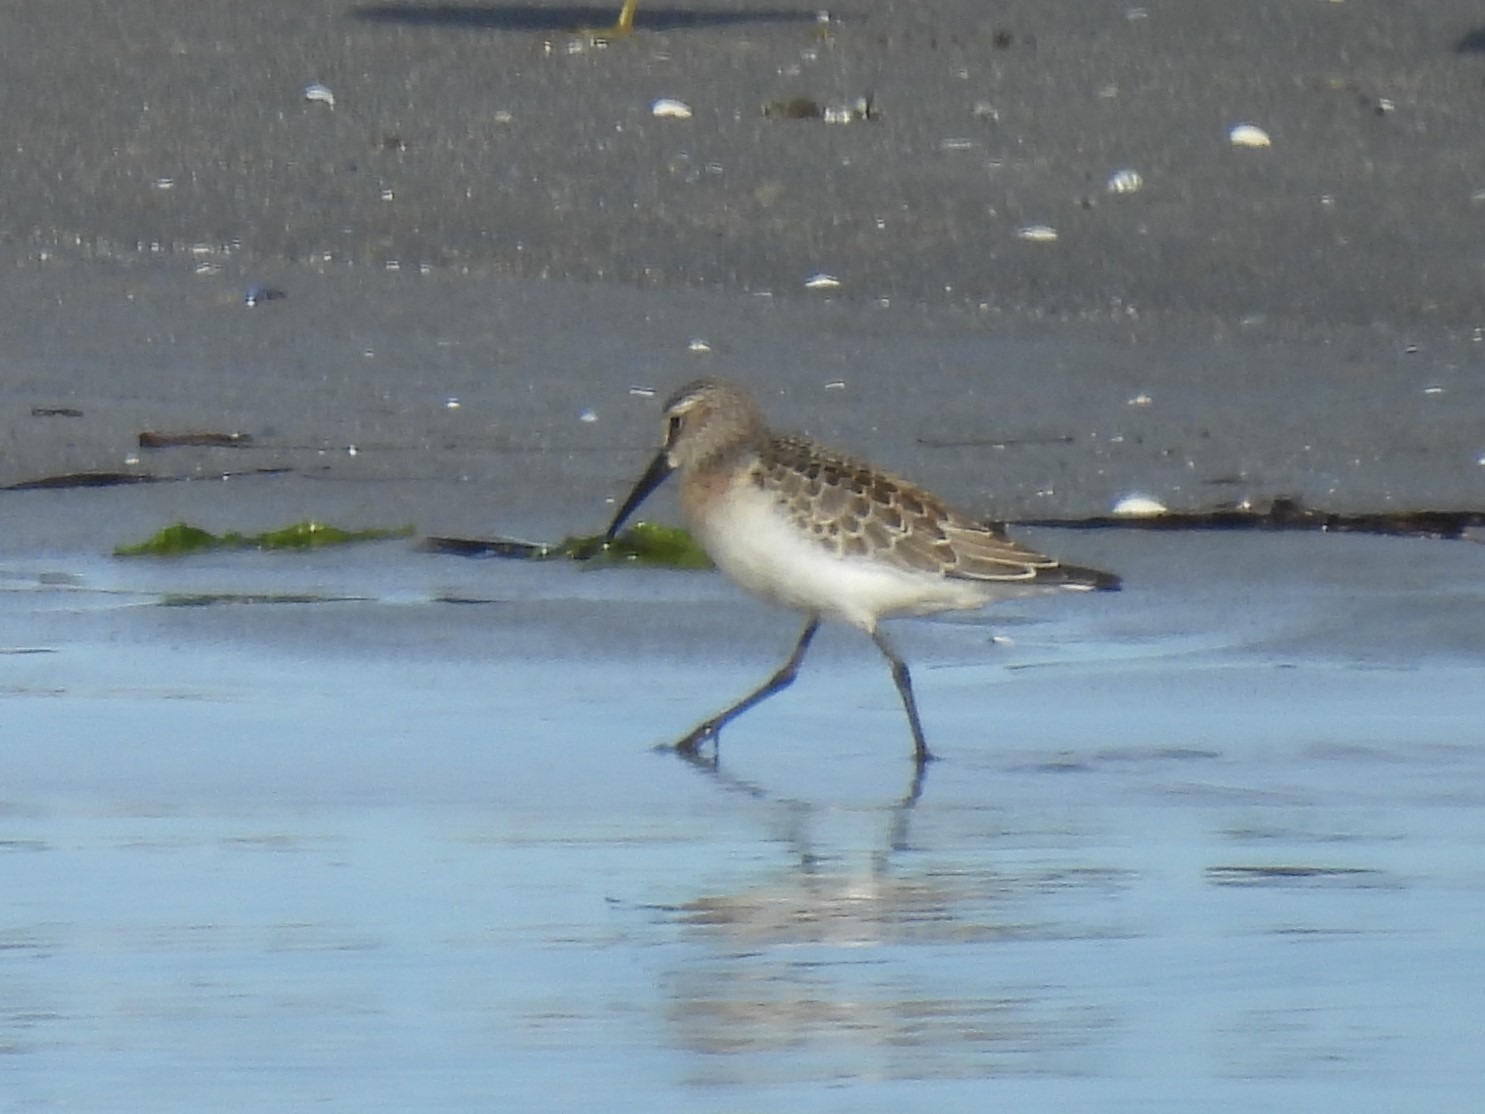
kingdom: Animalia
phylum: Chordata
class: Aves
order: Charadriiformes
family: Scolopacidae
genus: Calidris
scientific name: Calidris ferruginea
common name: Krumnæbbet ryle
